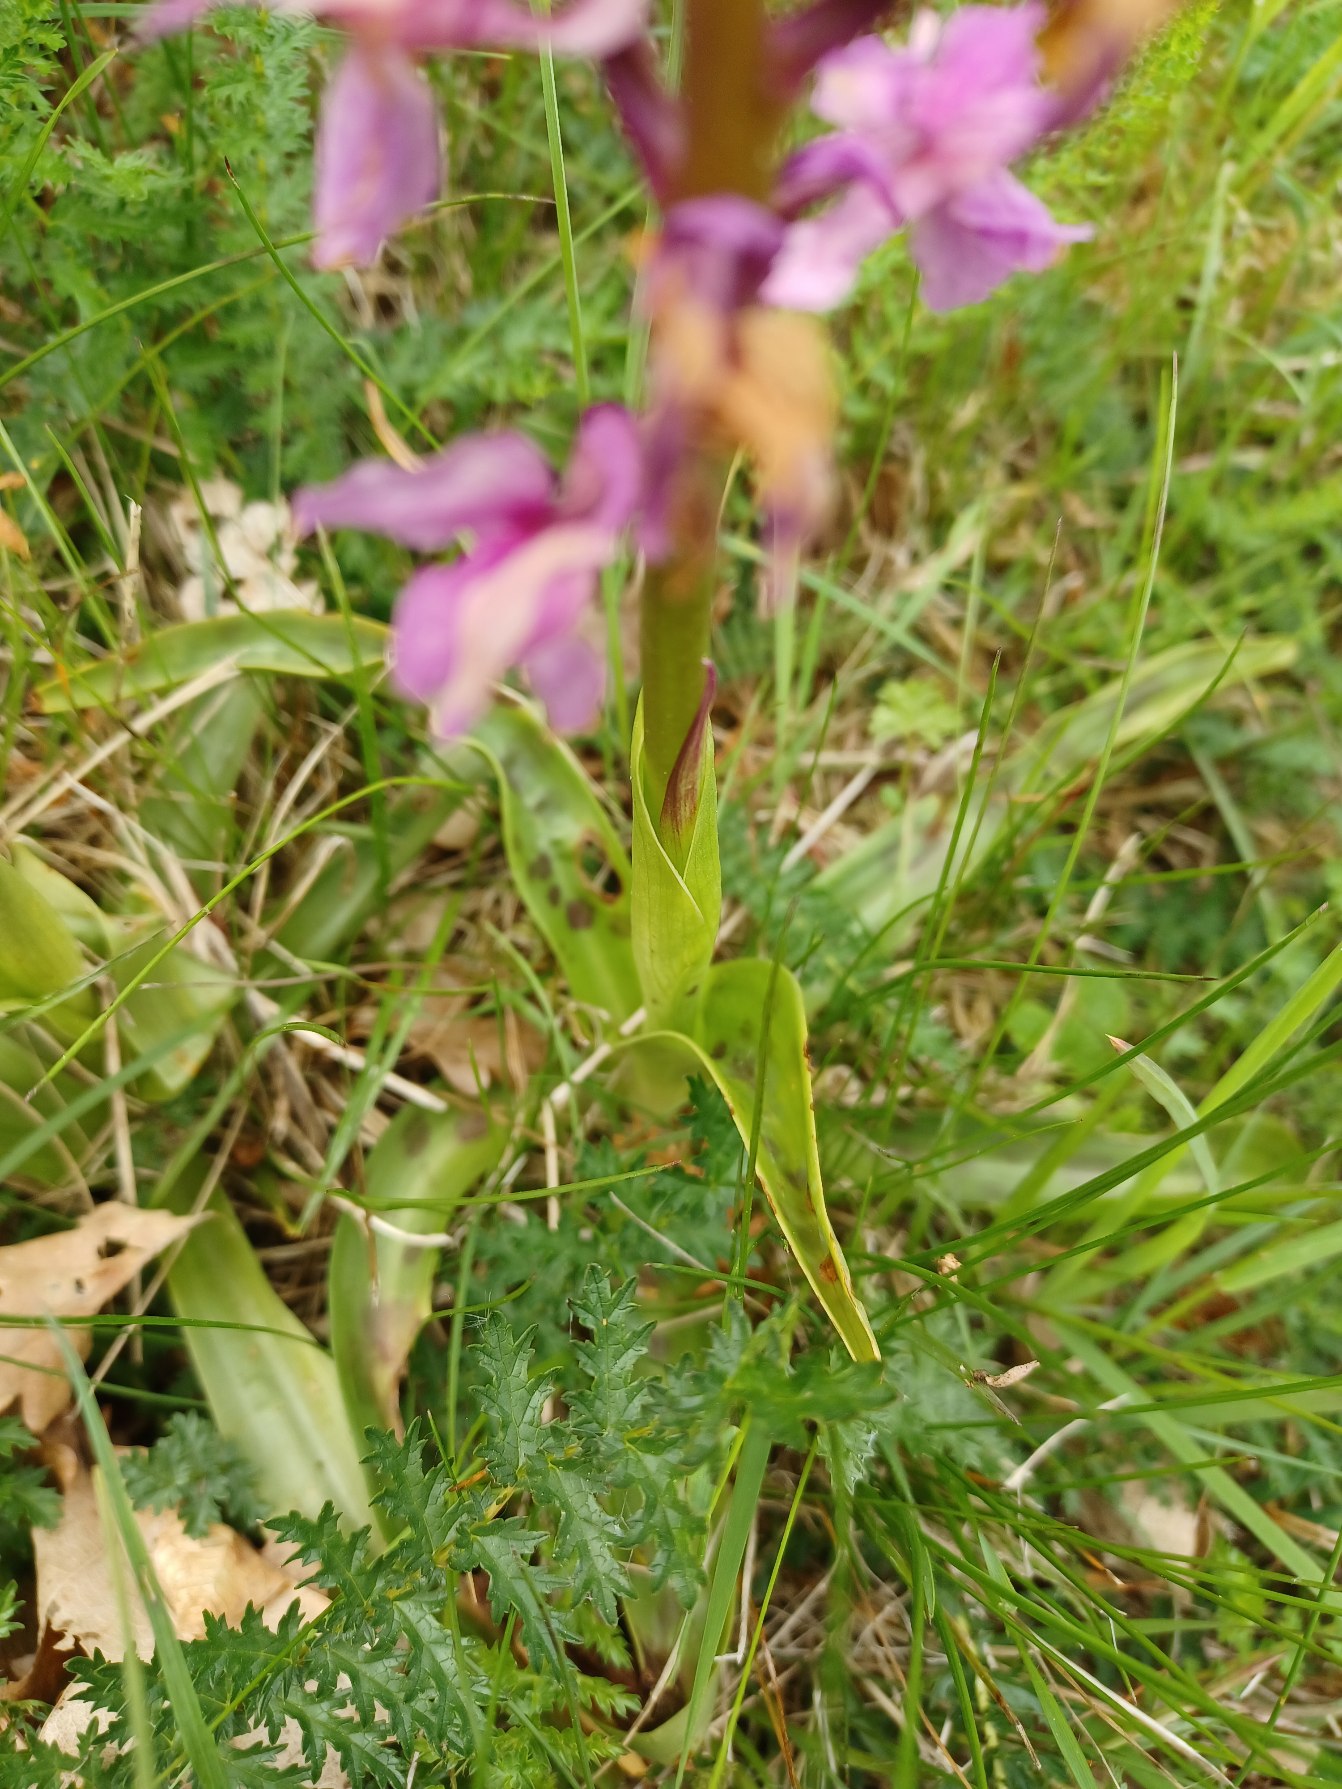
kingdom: Plantae
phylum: Tracheophyta
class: Liliopsida
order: Asparagales
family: Orchidaceae
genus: Orchis
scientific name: Orchis mascula
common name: Tyndakset gøgeurt
